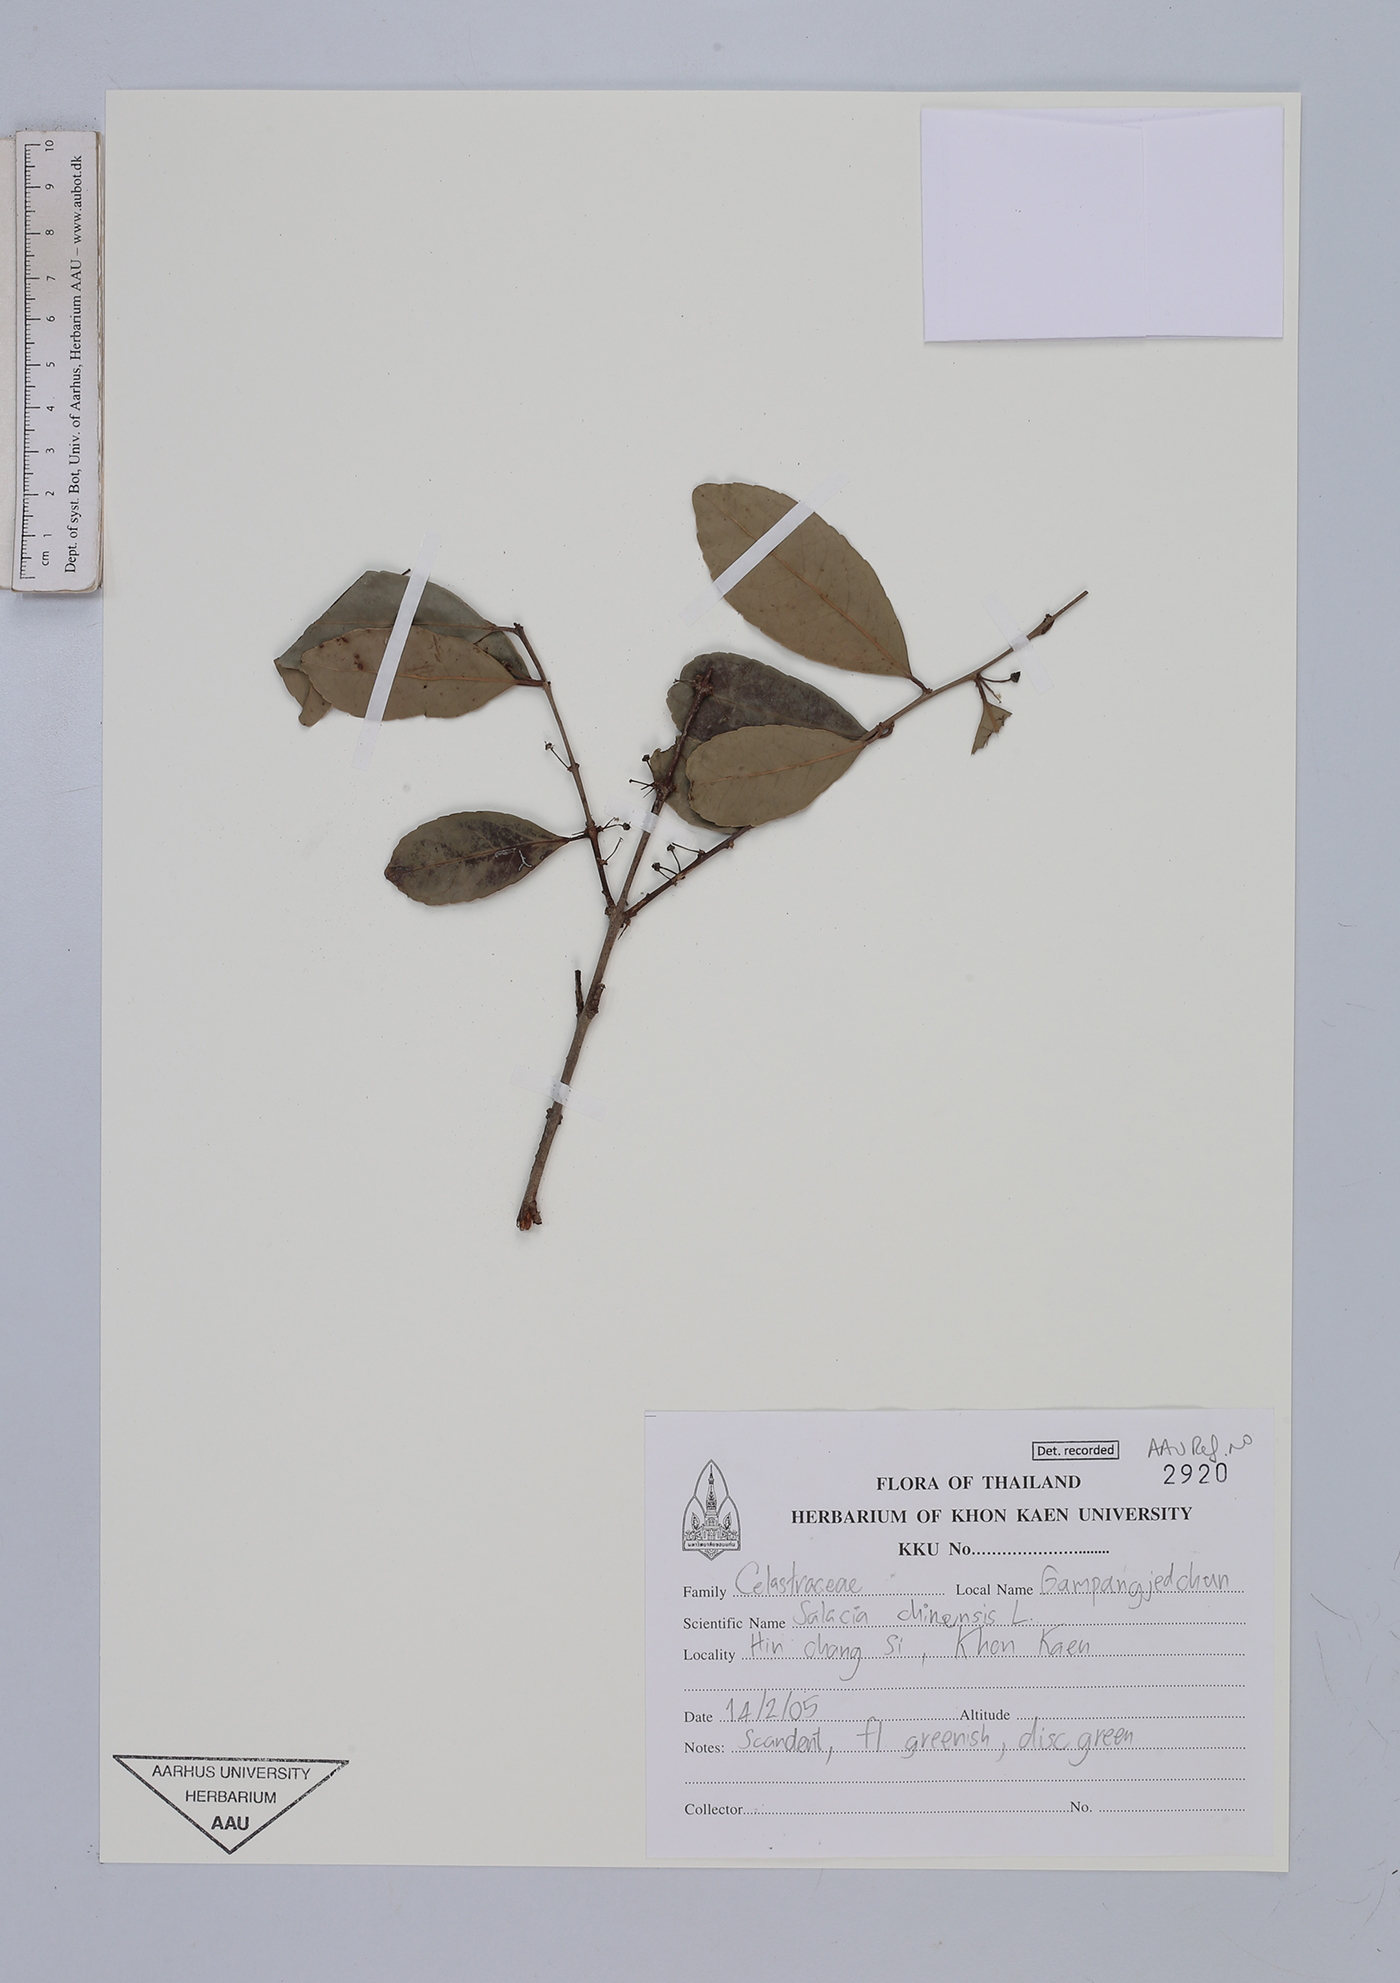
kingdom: Plantae
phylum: Tracheophyta
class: Magnoliopsida
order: Celastrales
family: Celastraceae
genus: Salacia
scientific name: Salacia chinensis
